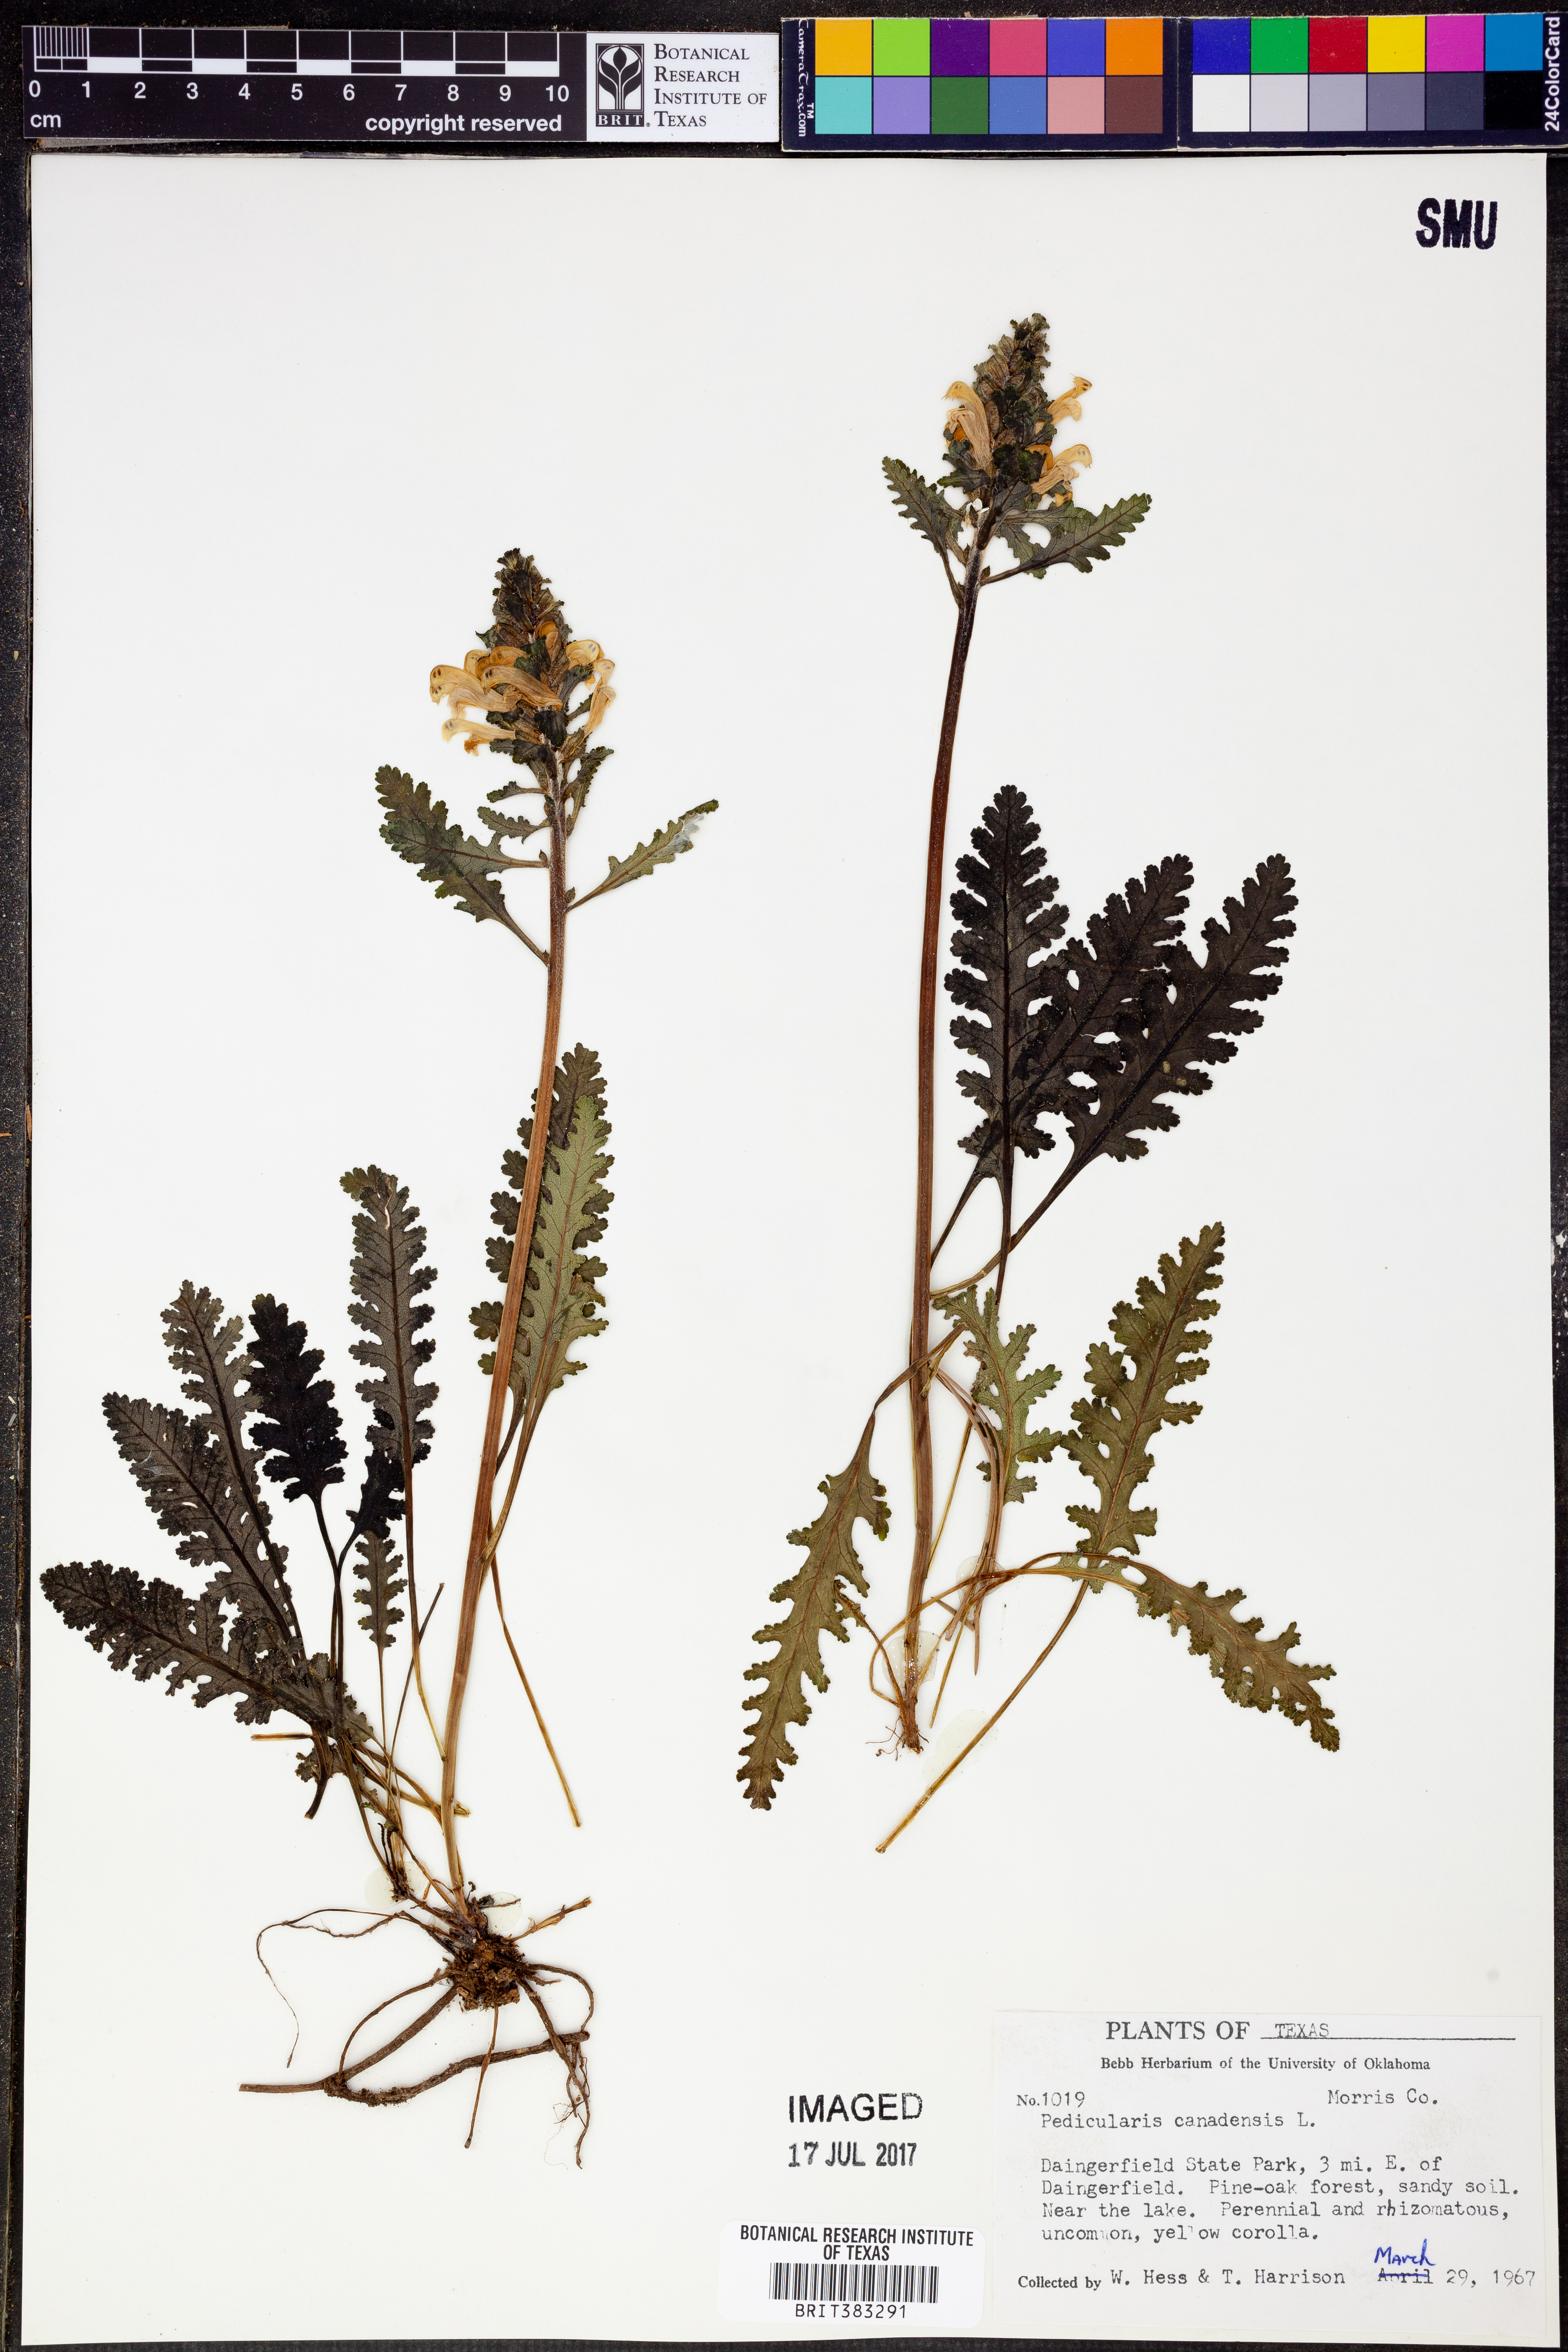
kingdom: Plantae
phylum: Tracheophyta
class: Magnoliopsida
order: Lamiales
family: Orobanchaceae
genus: Pedicularis
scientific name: Pedicularis canadensis
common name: Early lousewort
